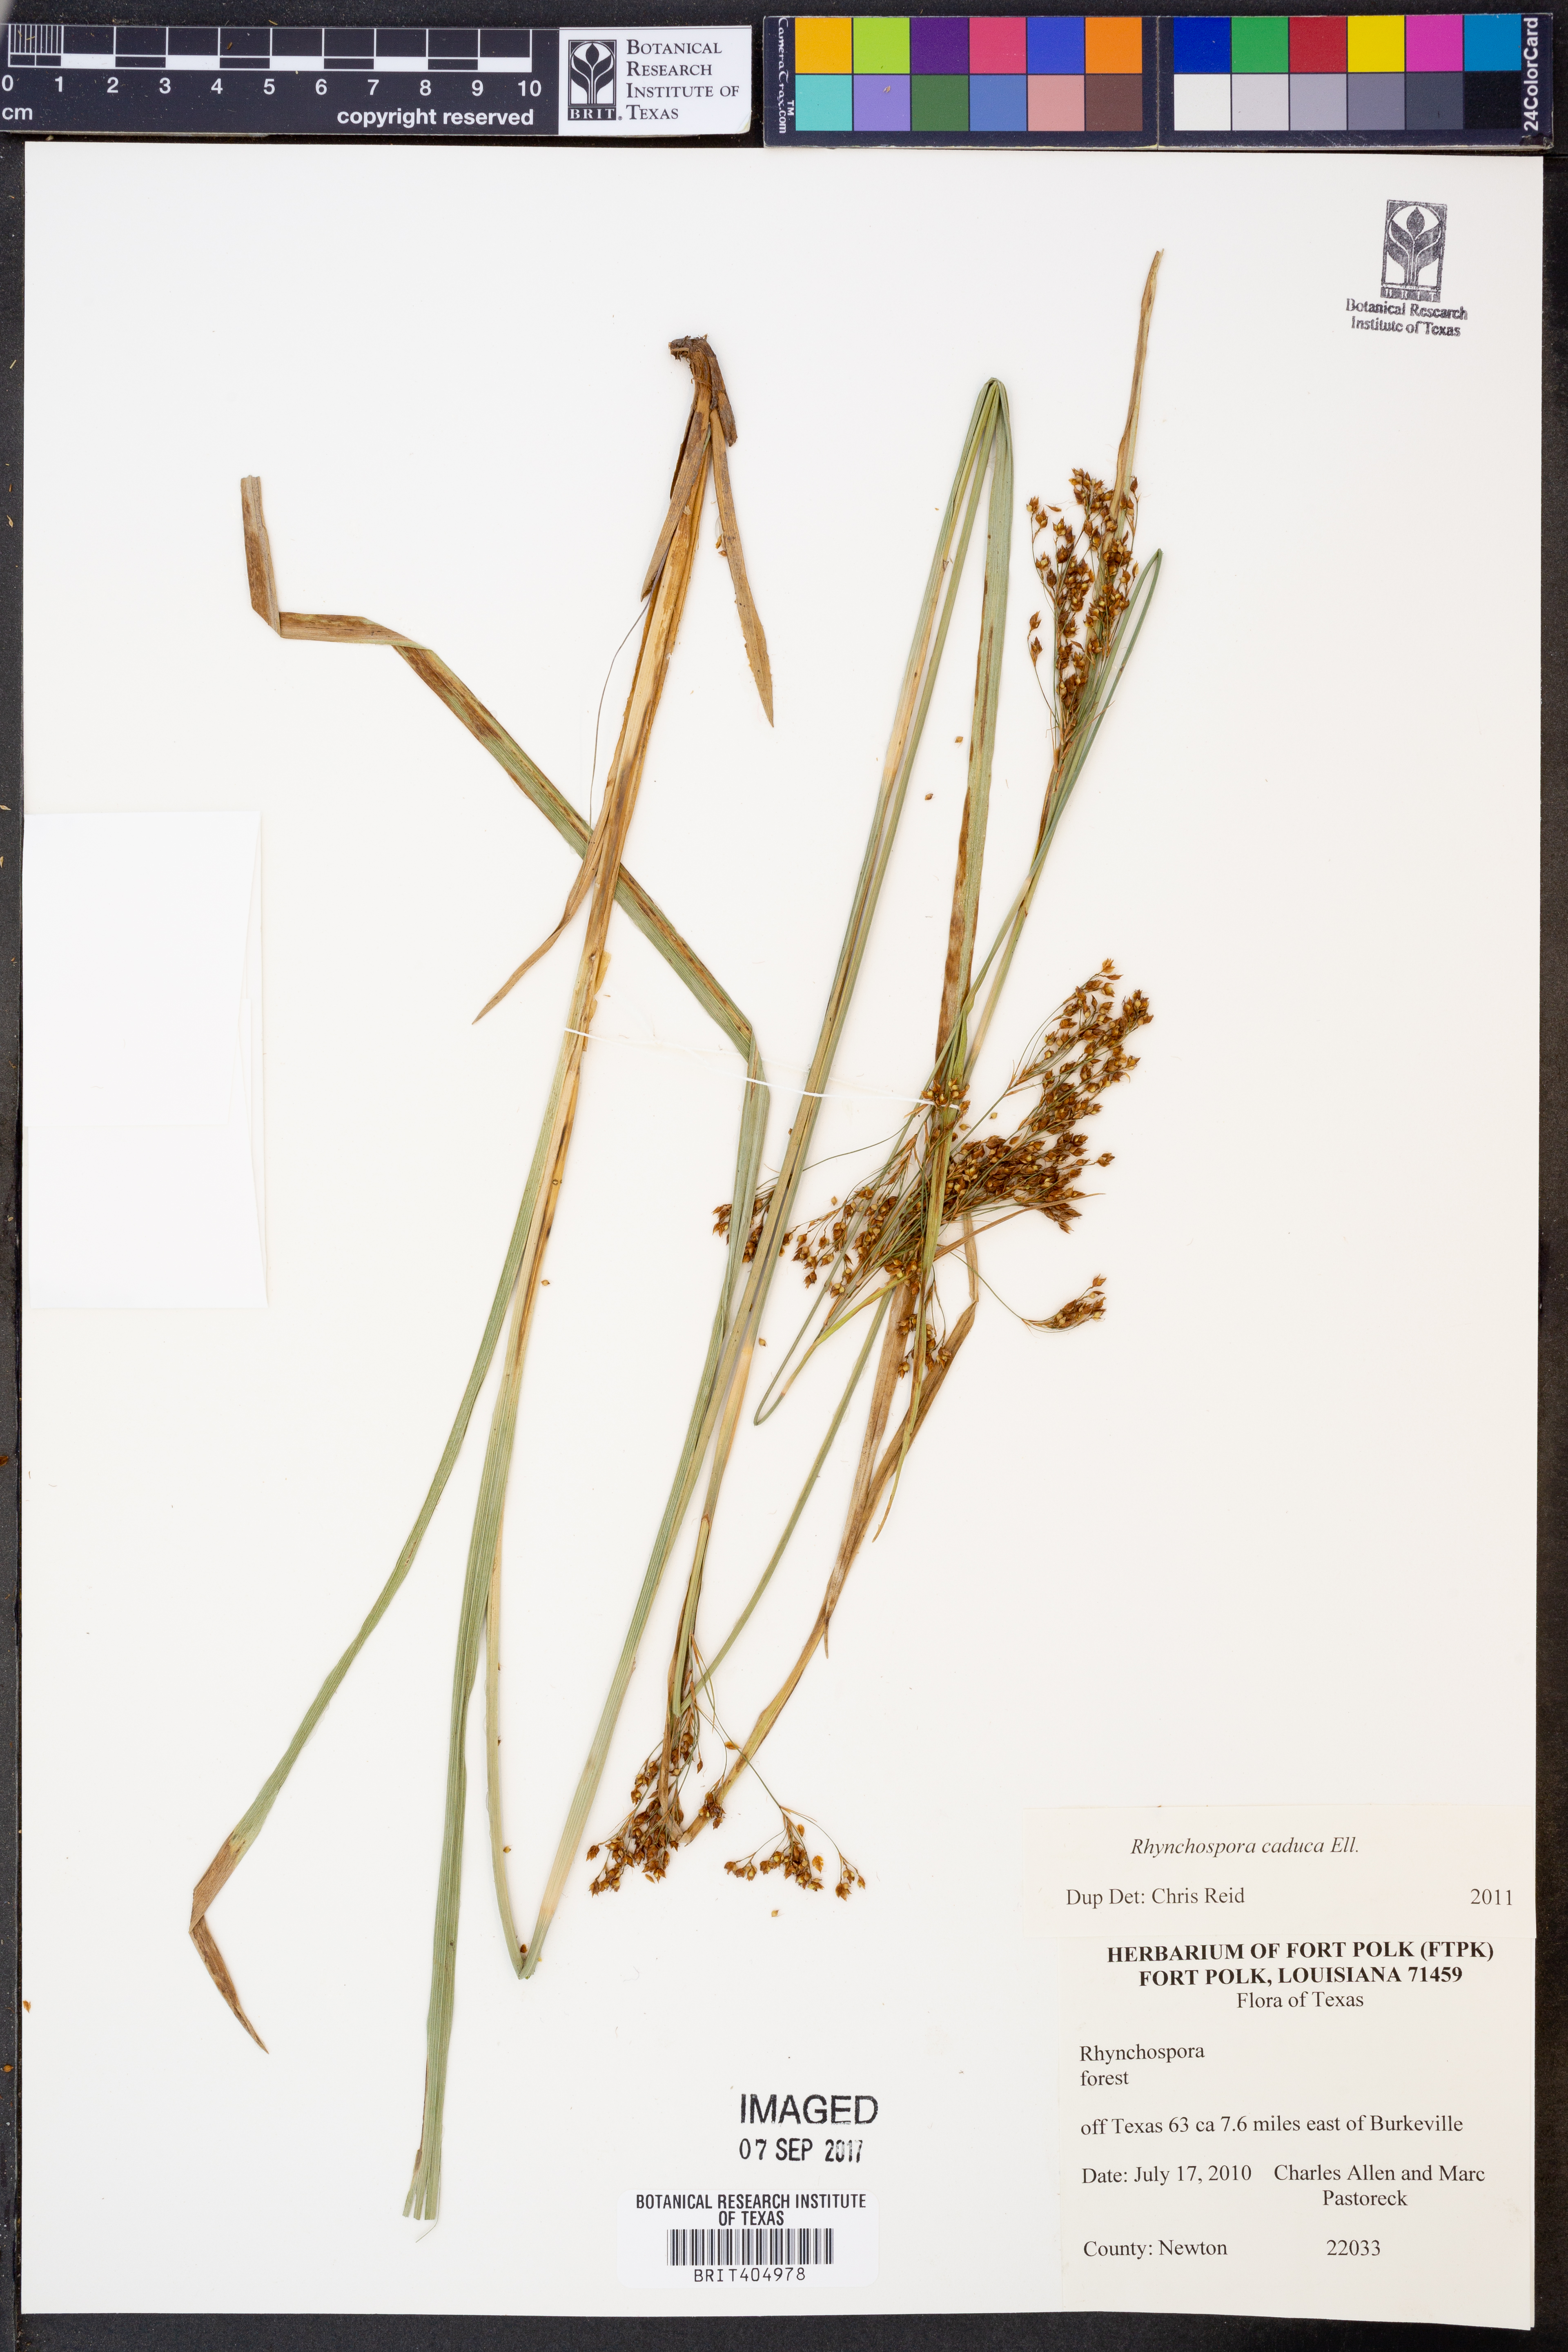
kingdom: Plantae
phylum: Tracheophyta
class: Liliopsida
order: Poales
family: Cyperaceae
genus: Rhynchospora
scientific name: Rhynchospora caduca
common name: Anglestem beaksedge
